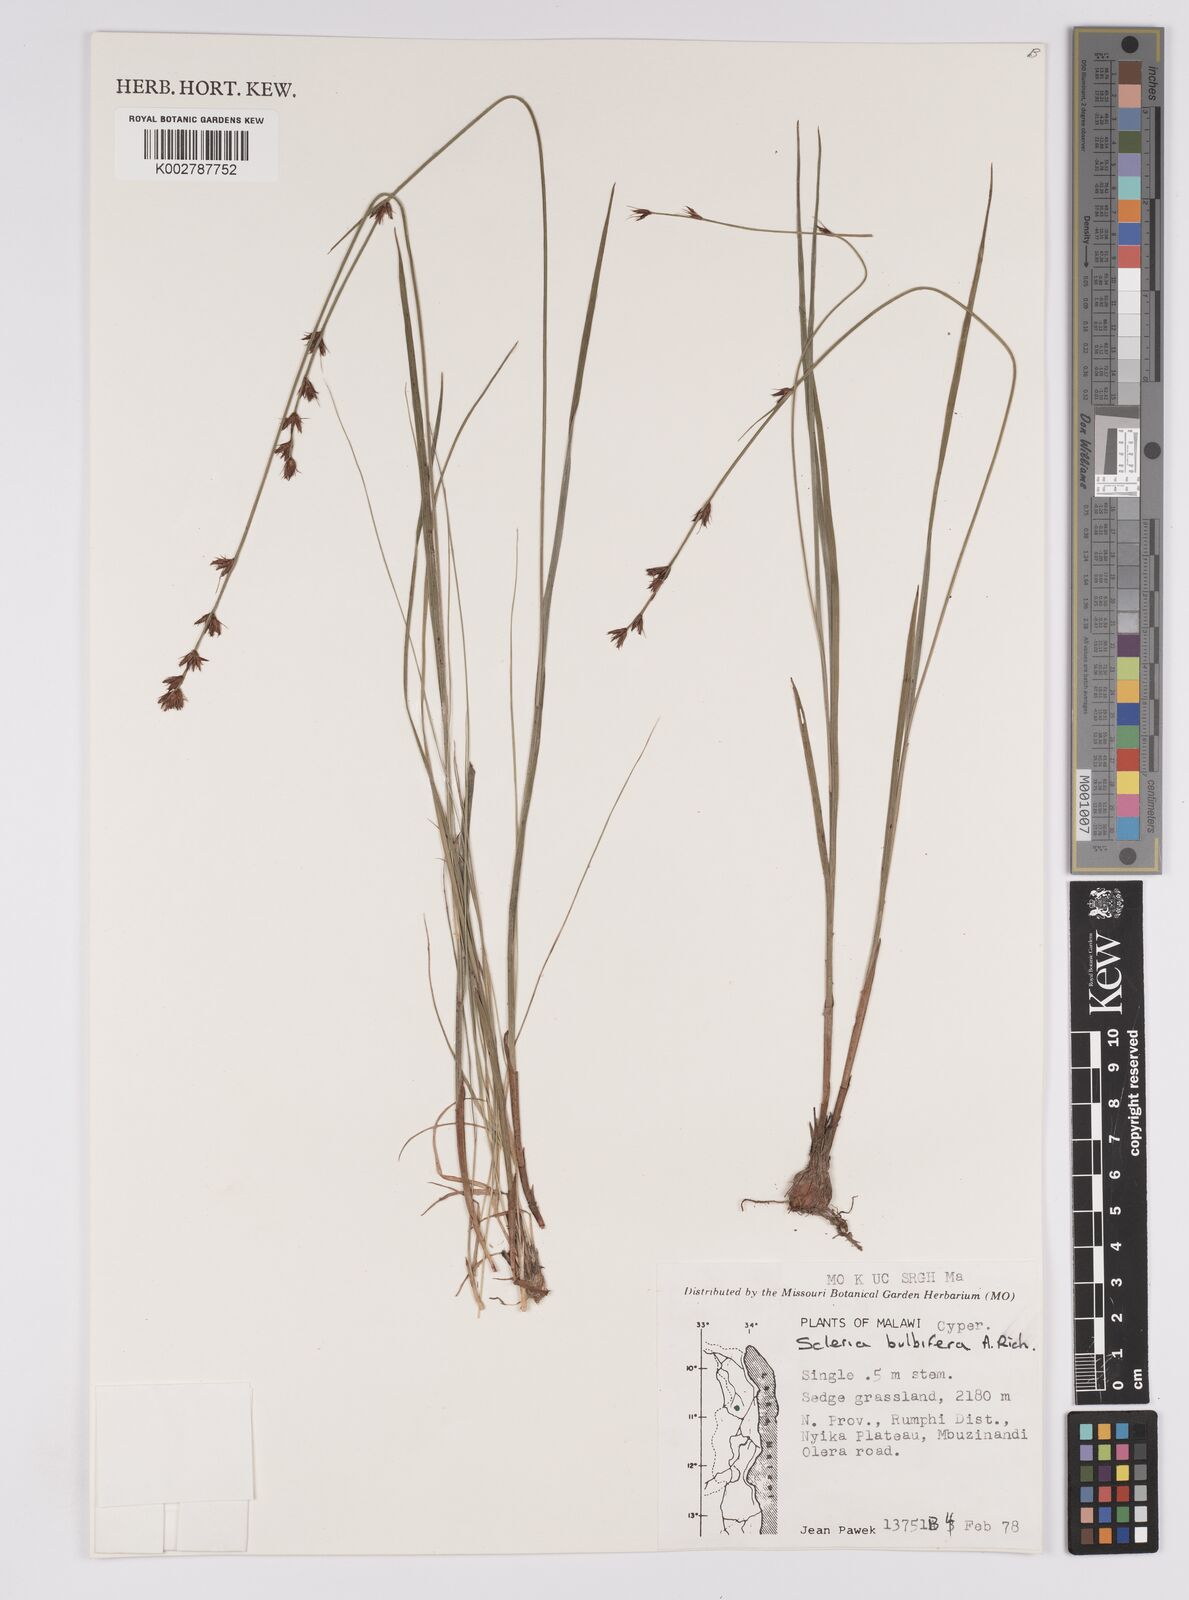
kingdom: Plantae
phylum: Tracheophyta
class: Liliopsida
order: Poales
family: Cyperaceae
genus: Scleria
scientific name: Scleria bulbifera
